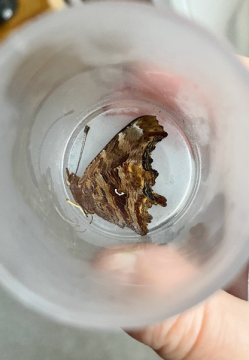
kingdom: Animalia
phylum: Arthropoda
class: Insecta
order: Lepidoptera
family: Nymphalidae
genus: Polygonia
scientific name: Polygonia satyrus
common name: Satyr Comma
